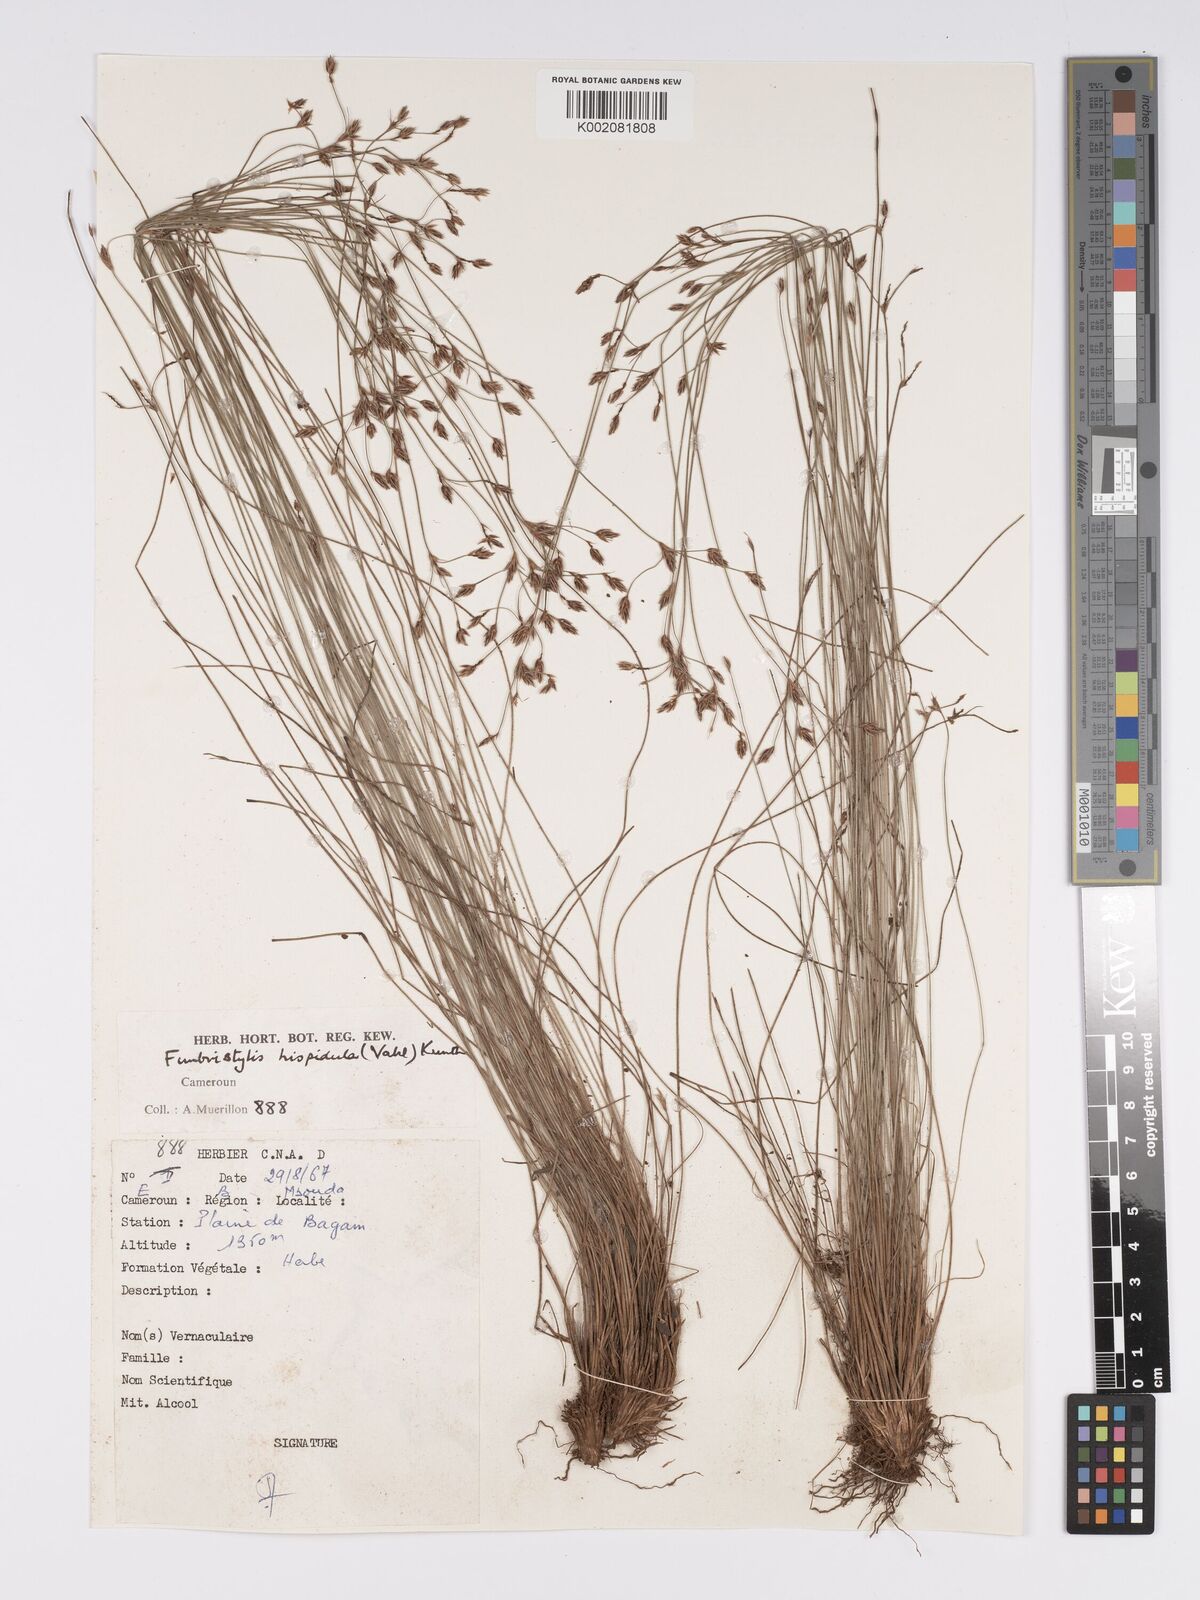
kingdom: Plantae
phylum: Tracheophyta
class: Liliopsida
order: Poales
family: Cyperaceae
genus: Bulbostylis
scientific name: Bulbostylis hispidula
